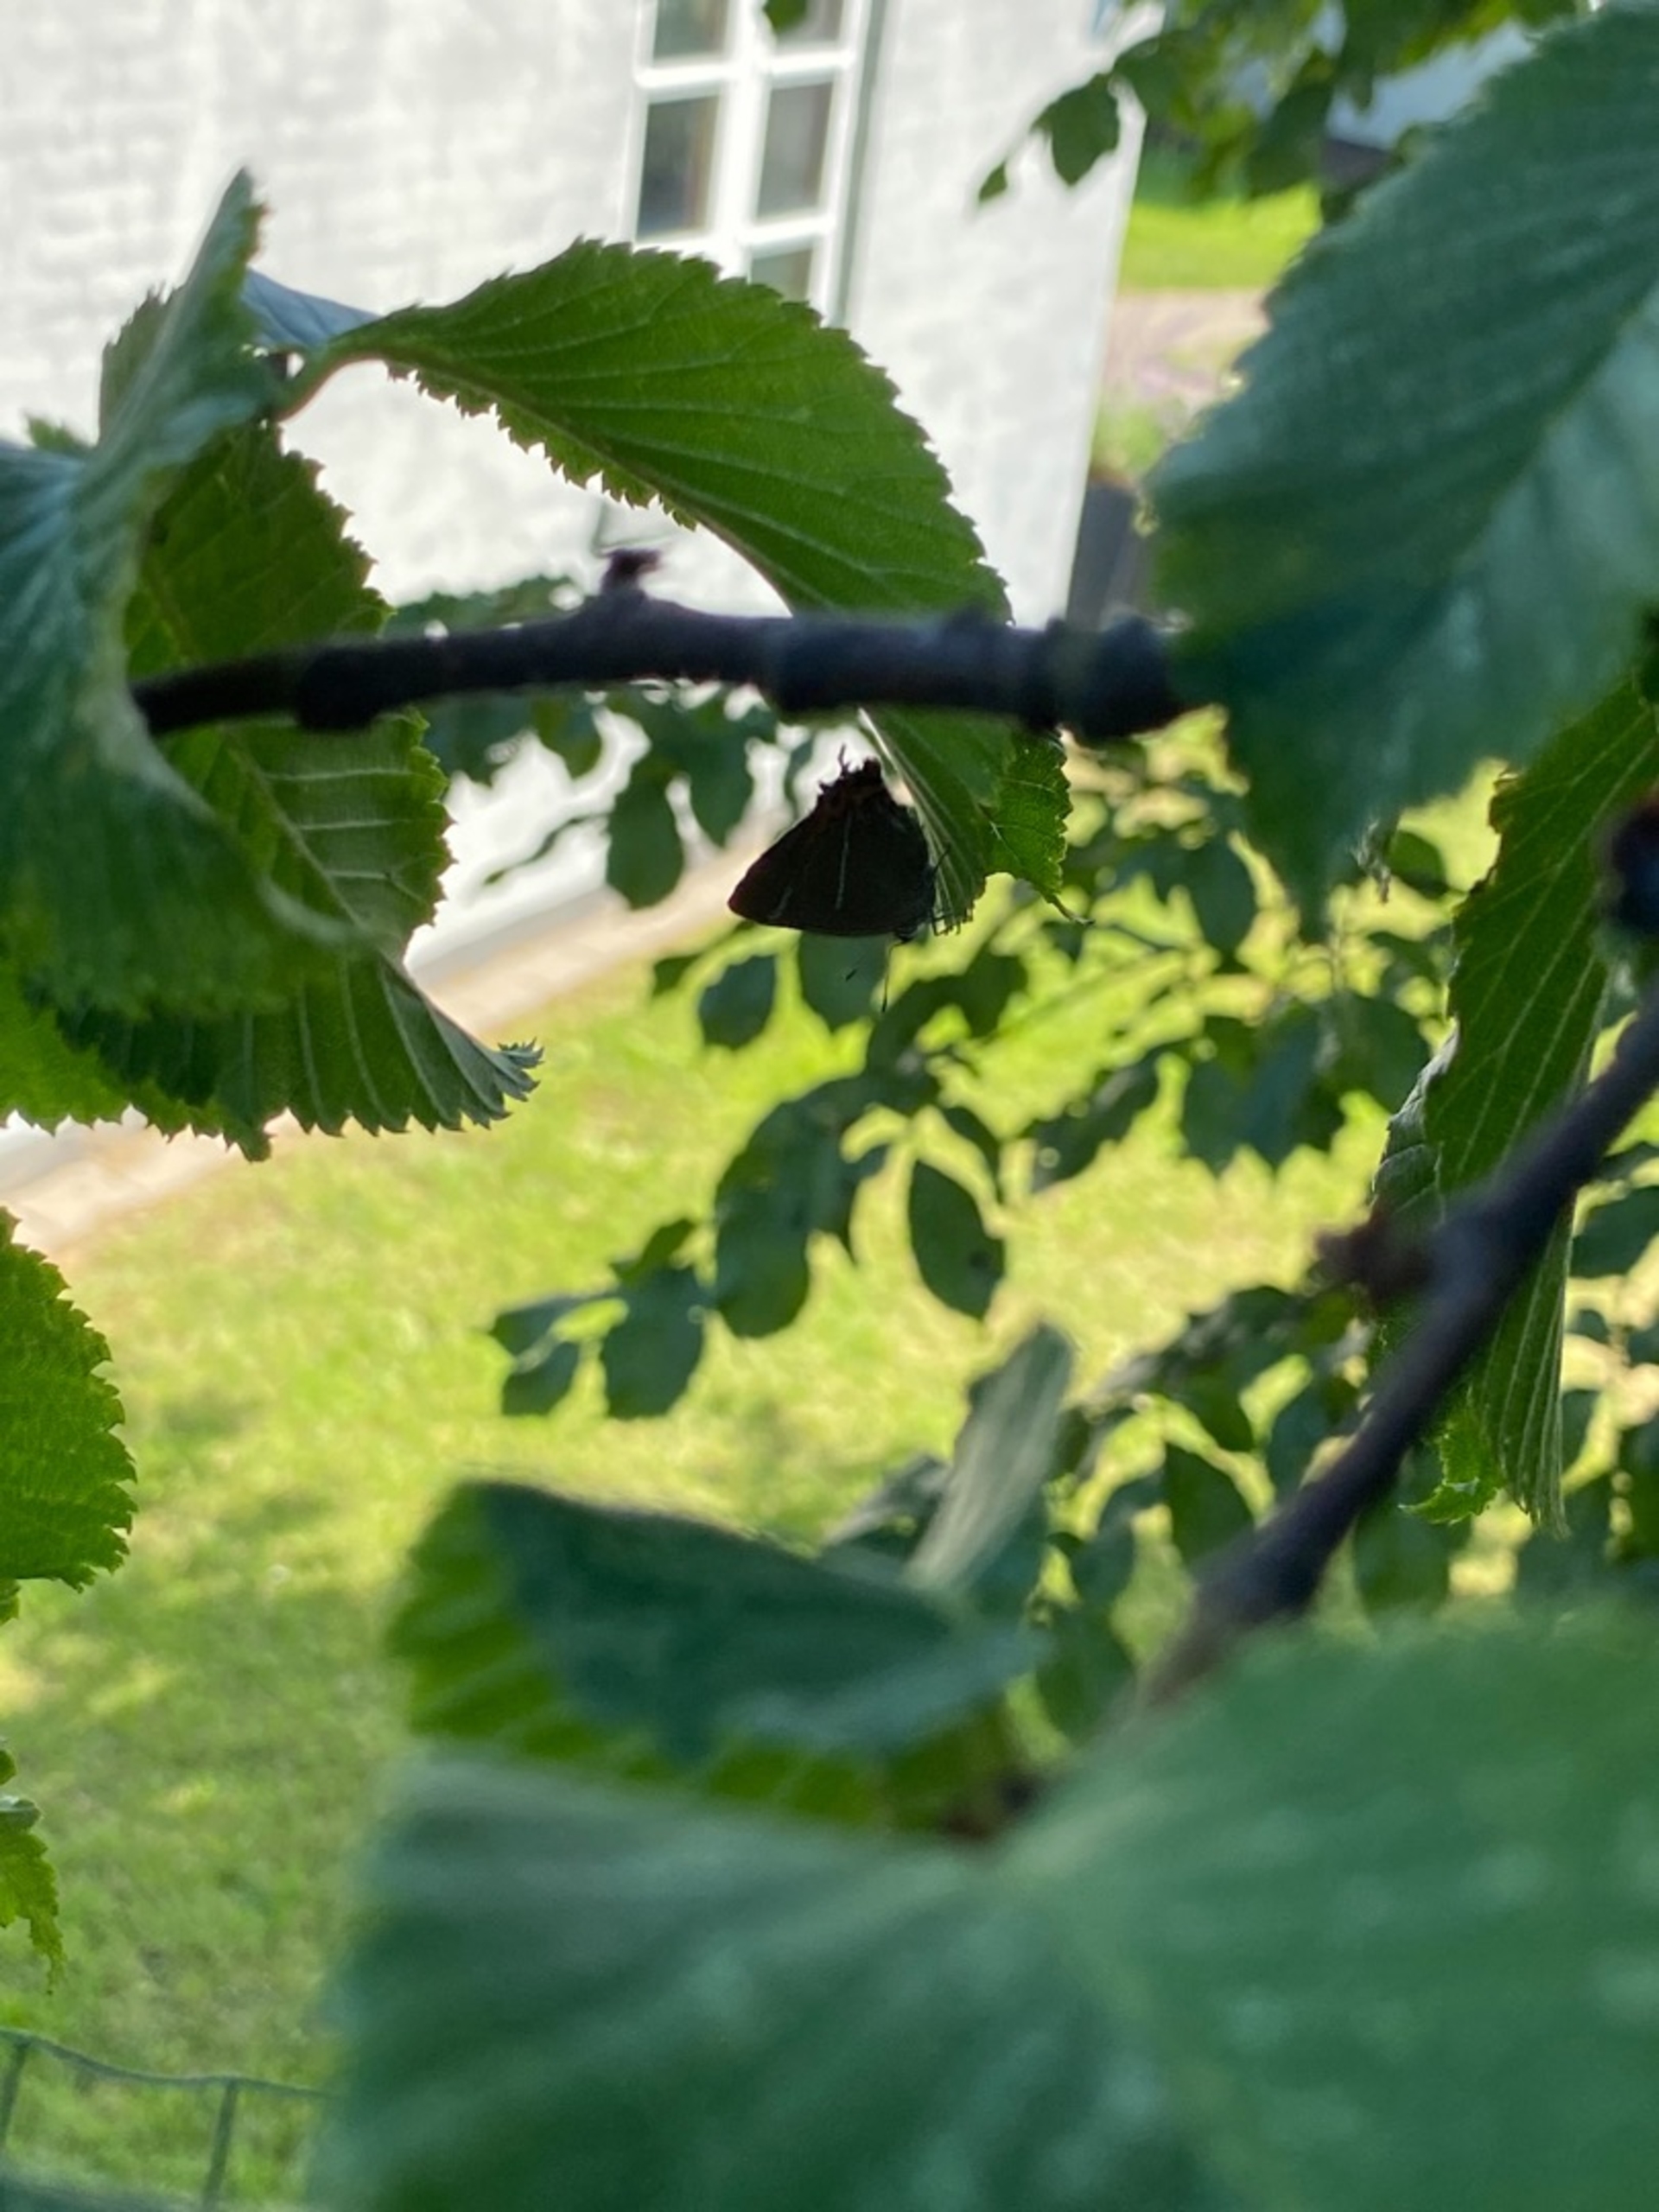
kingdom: Animalia
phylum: Arthropoda
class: Insecta
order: Lepidoptera
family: Lycaenidae
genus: Satyrium
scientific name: Satyrium w-album
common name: Det hvide W
